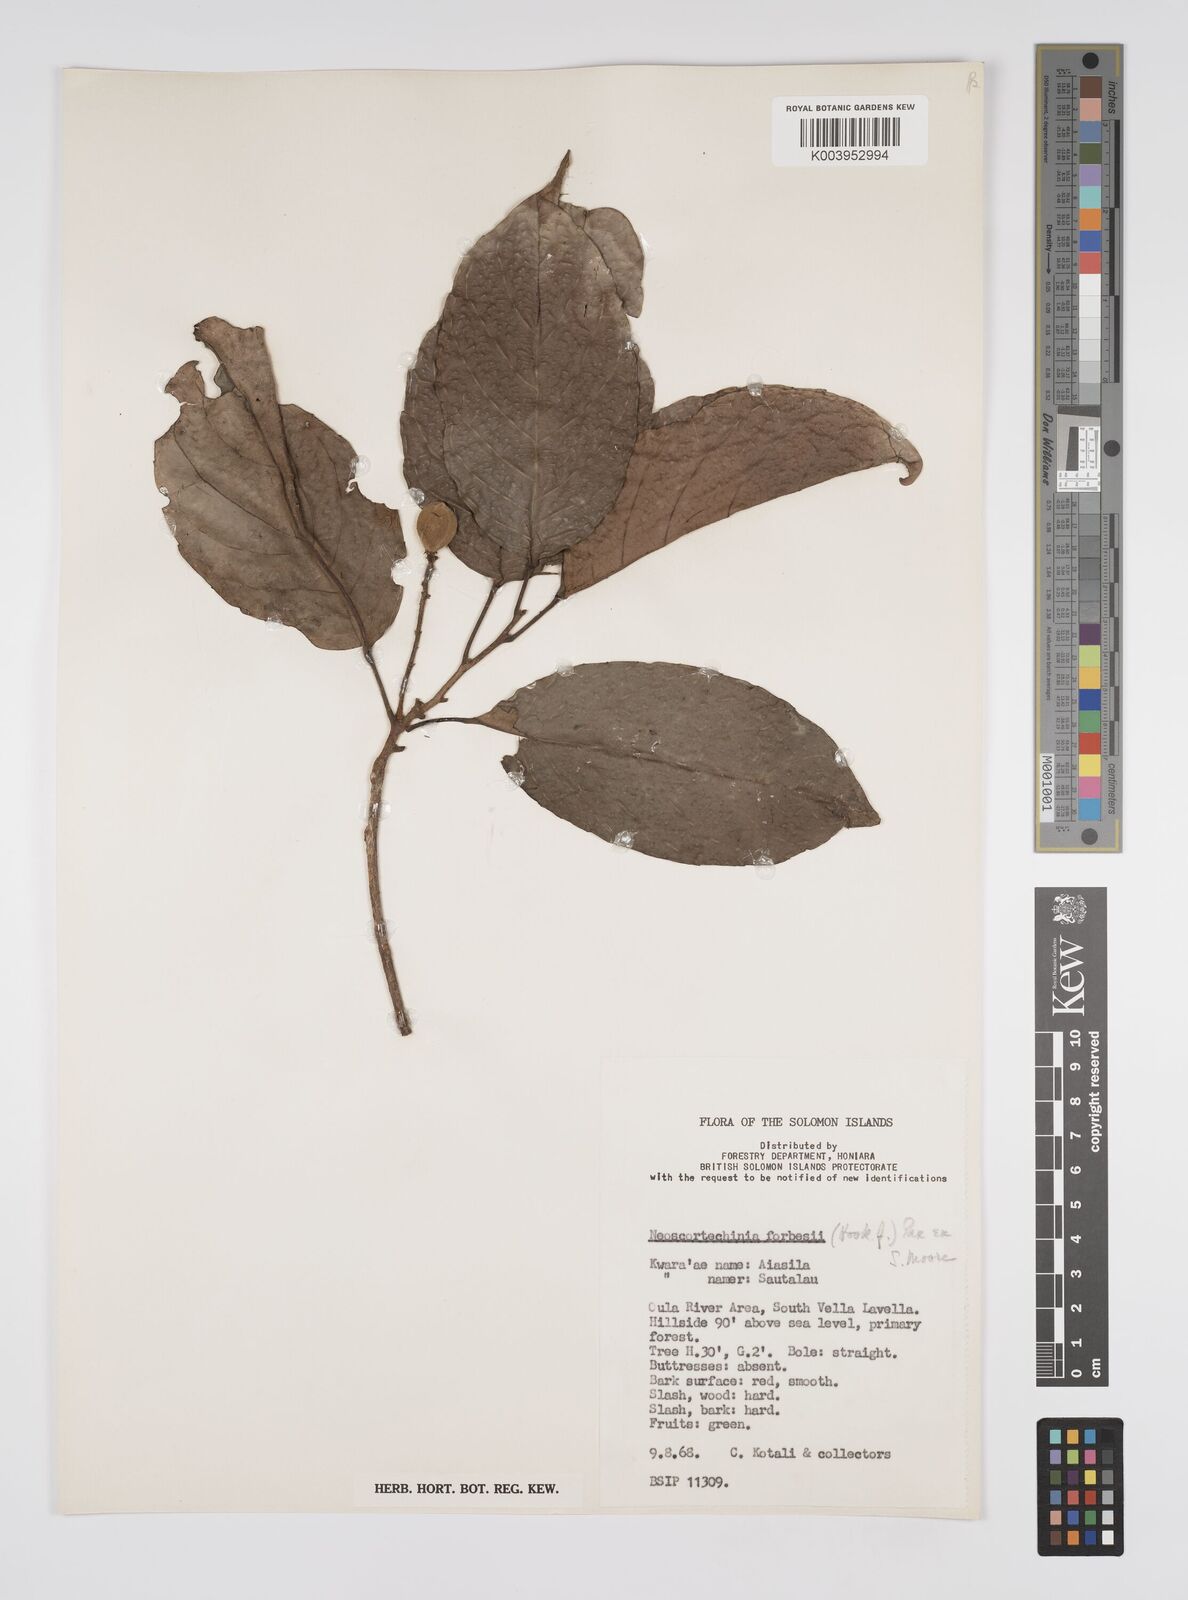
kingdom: Plantae
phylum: Tracheophyta
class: Magnoliopsida
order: Malpighiales
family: Euphorbiaceae
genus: Neoscortechinia
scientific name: Neoscortechinia forbesii
